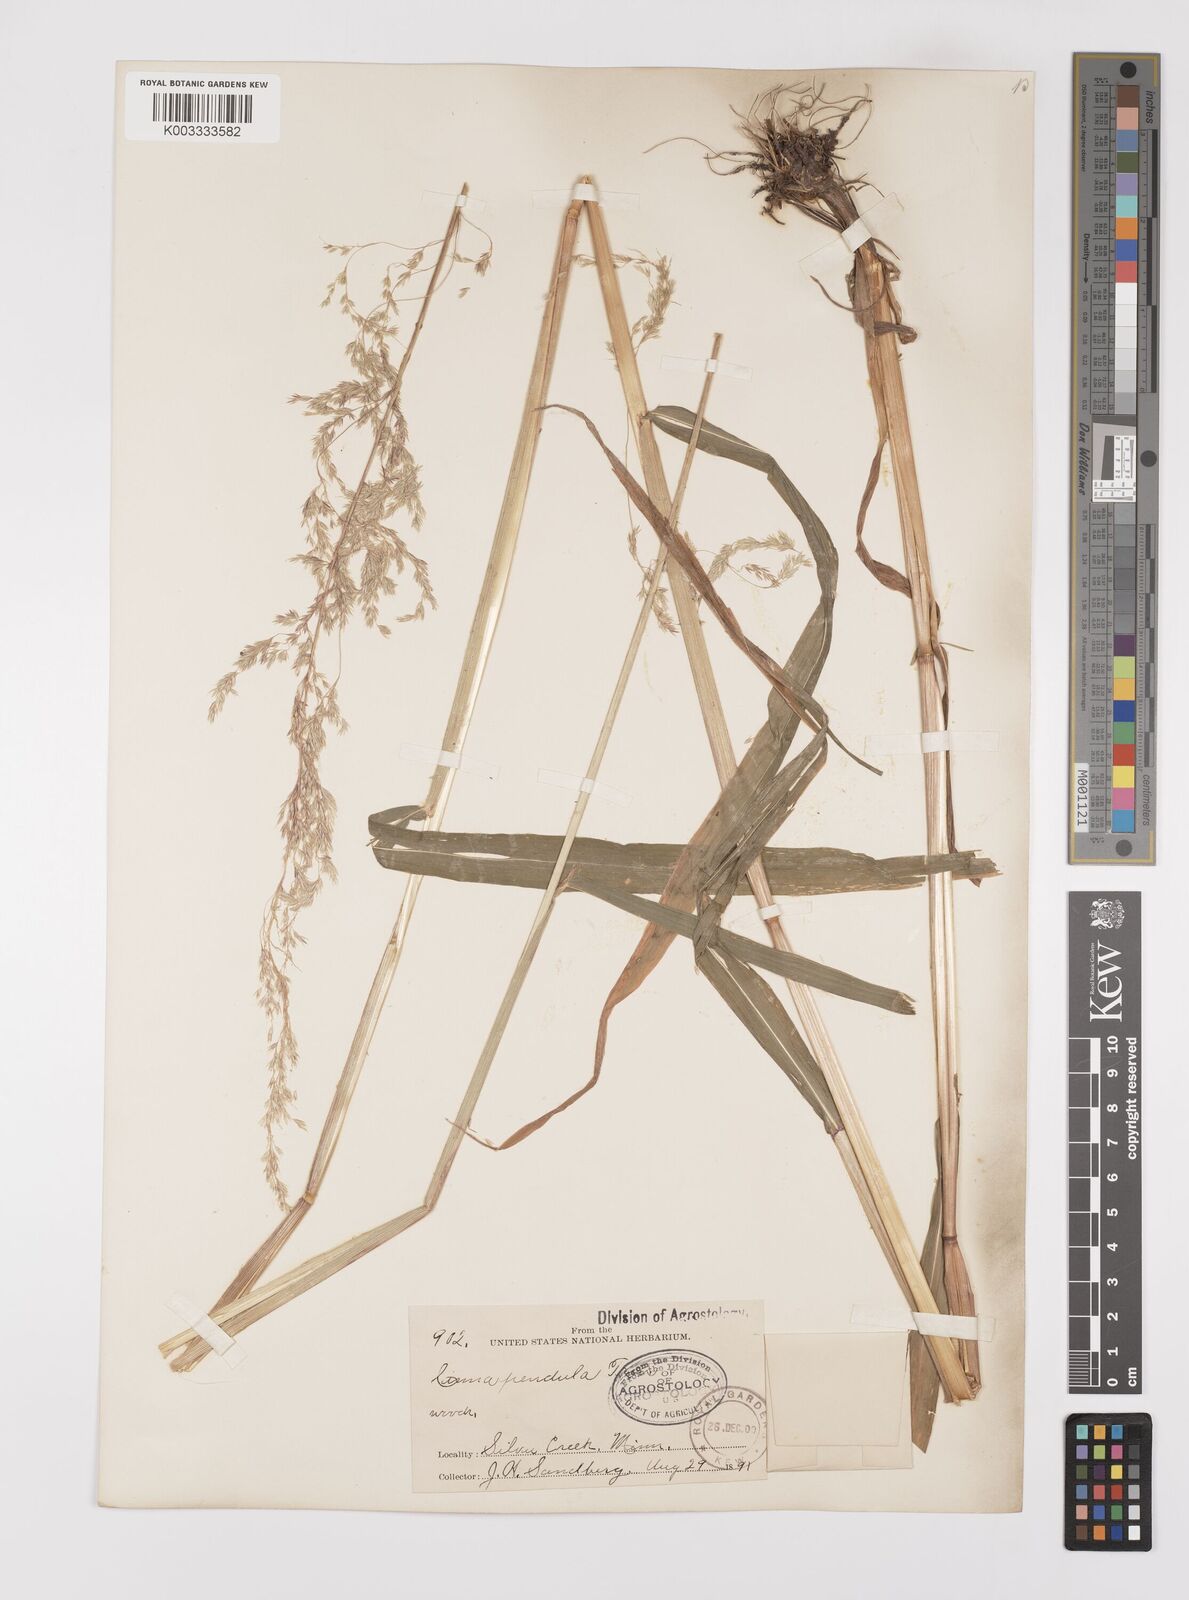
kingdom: Plantae
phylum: Tracheophyta
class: Liliopsida
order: Poales
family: Poaceae
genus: Cinna
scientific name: Cinna latifolia
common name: Drooping woodreed
